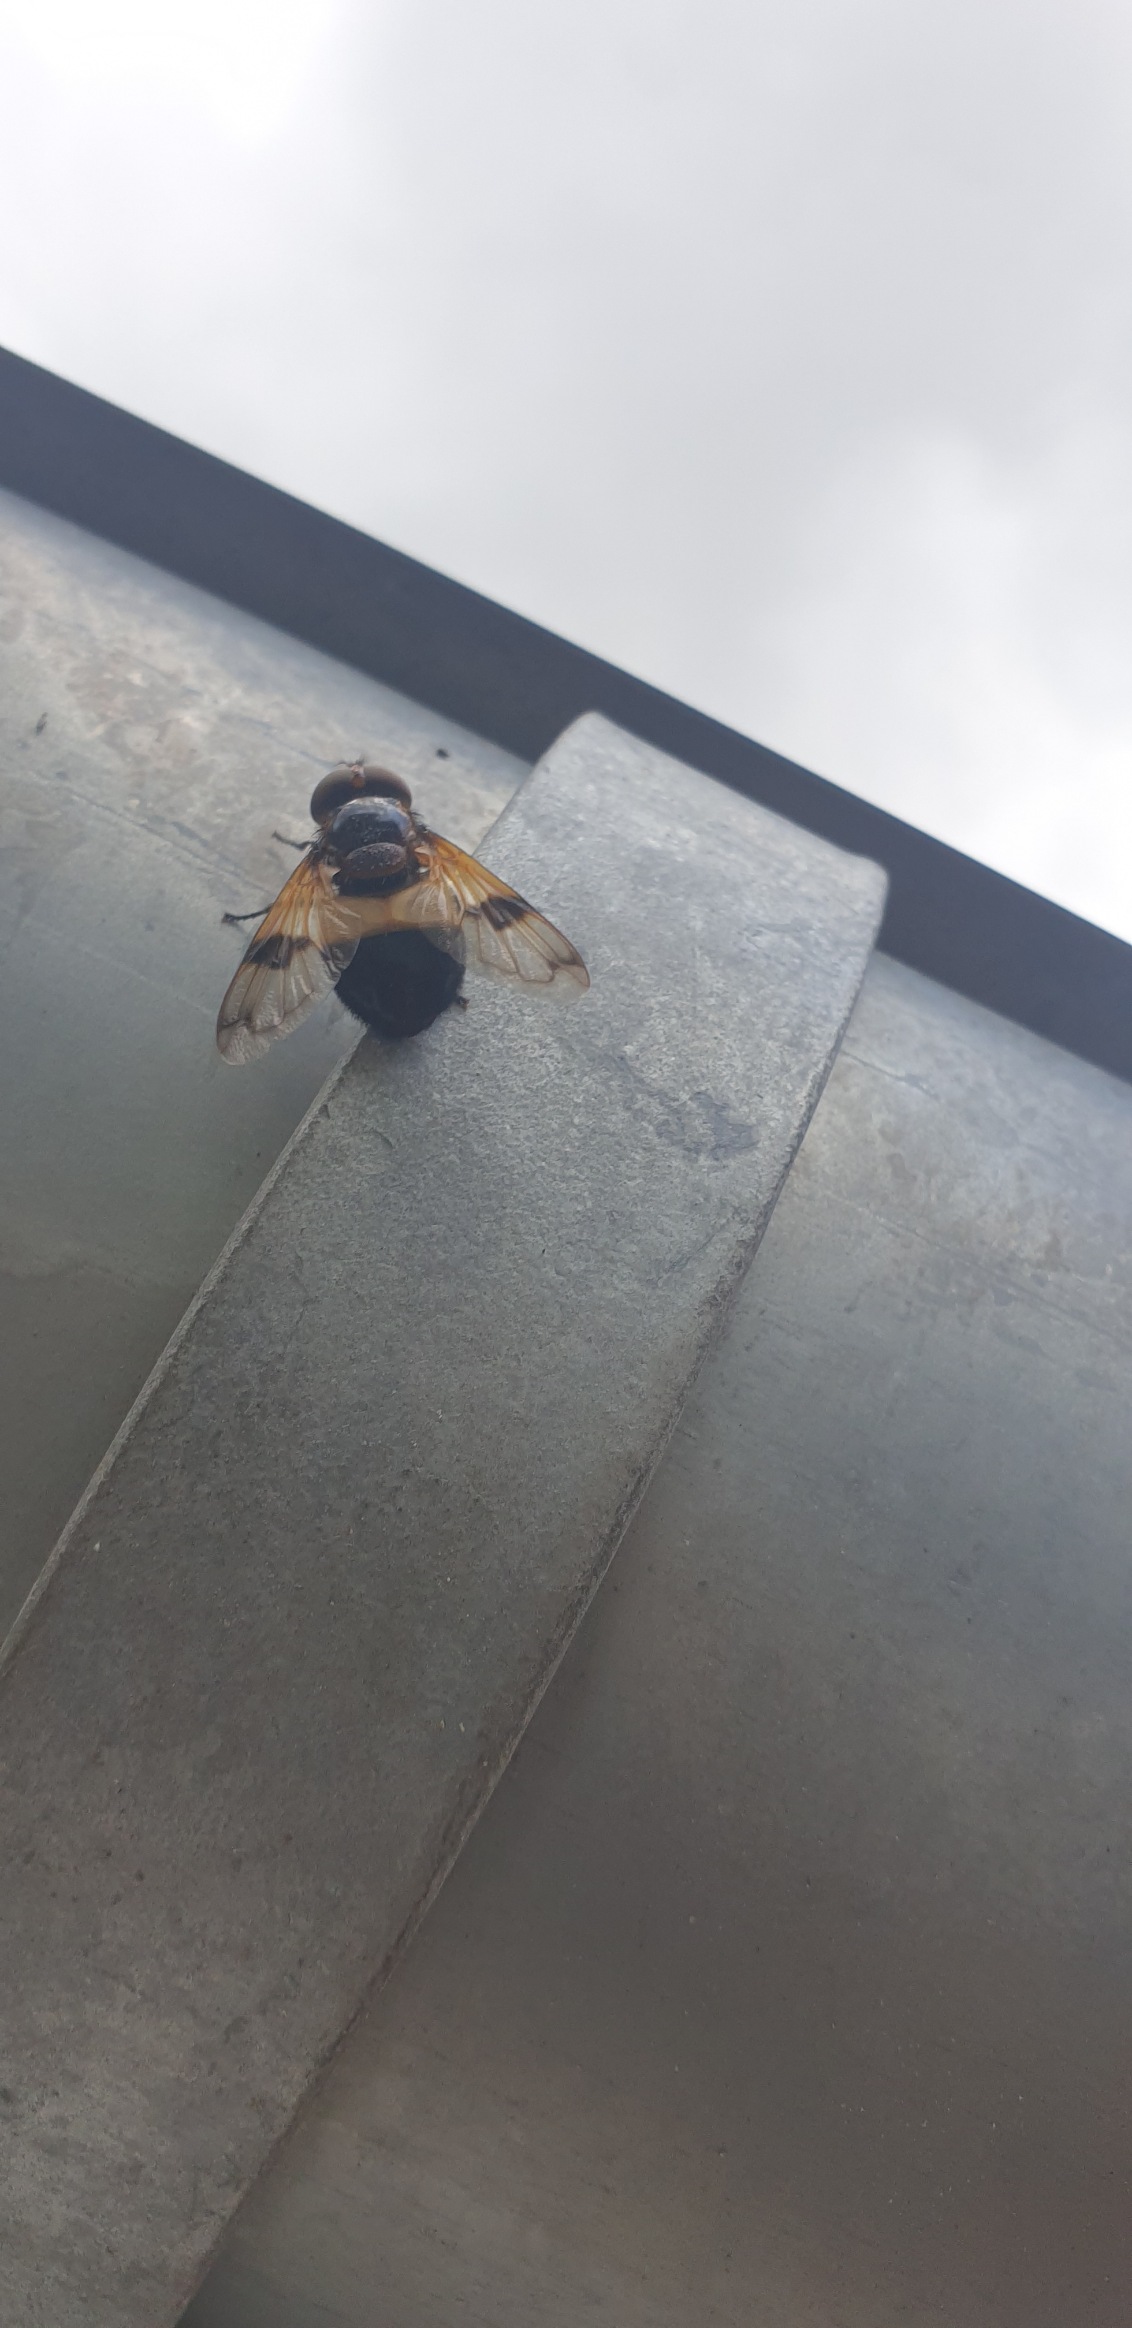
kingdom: Animalia
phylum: Arthropoda
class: Insecta
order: Diptera
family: Syrphidae
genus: Volucella
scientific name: Volucella pellucens
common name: Hvidbåndet humlesvirreflue
